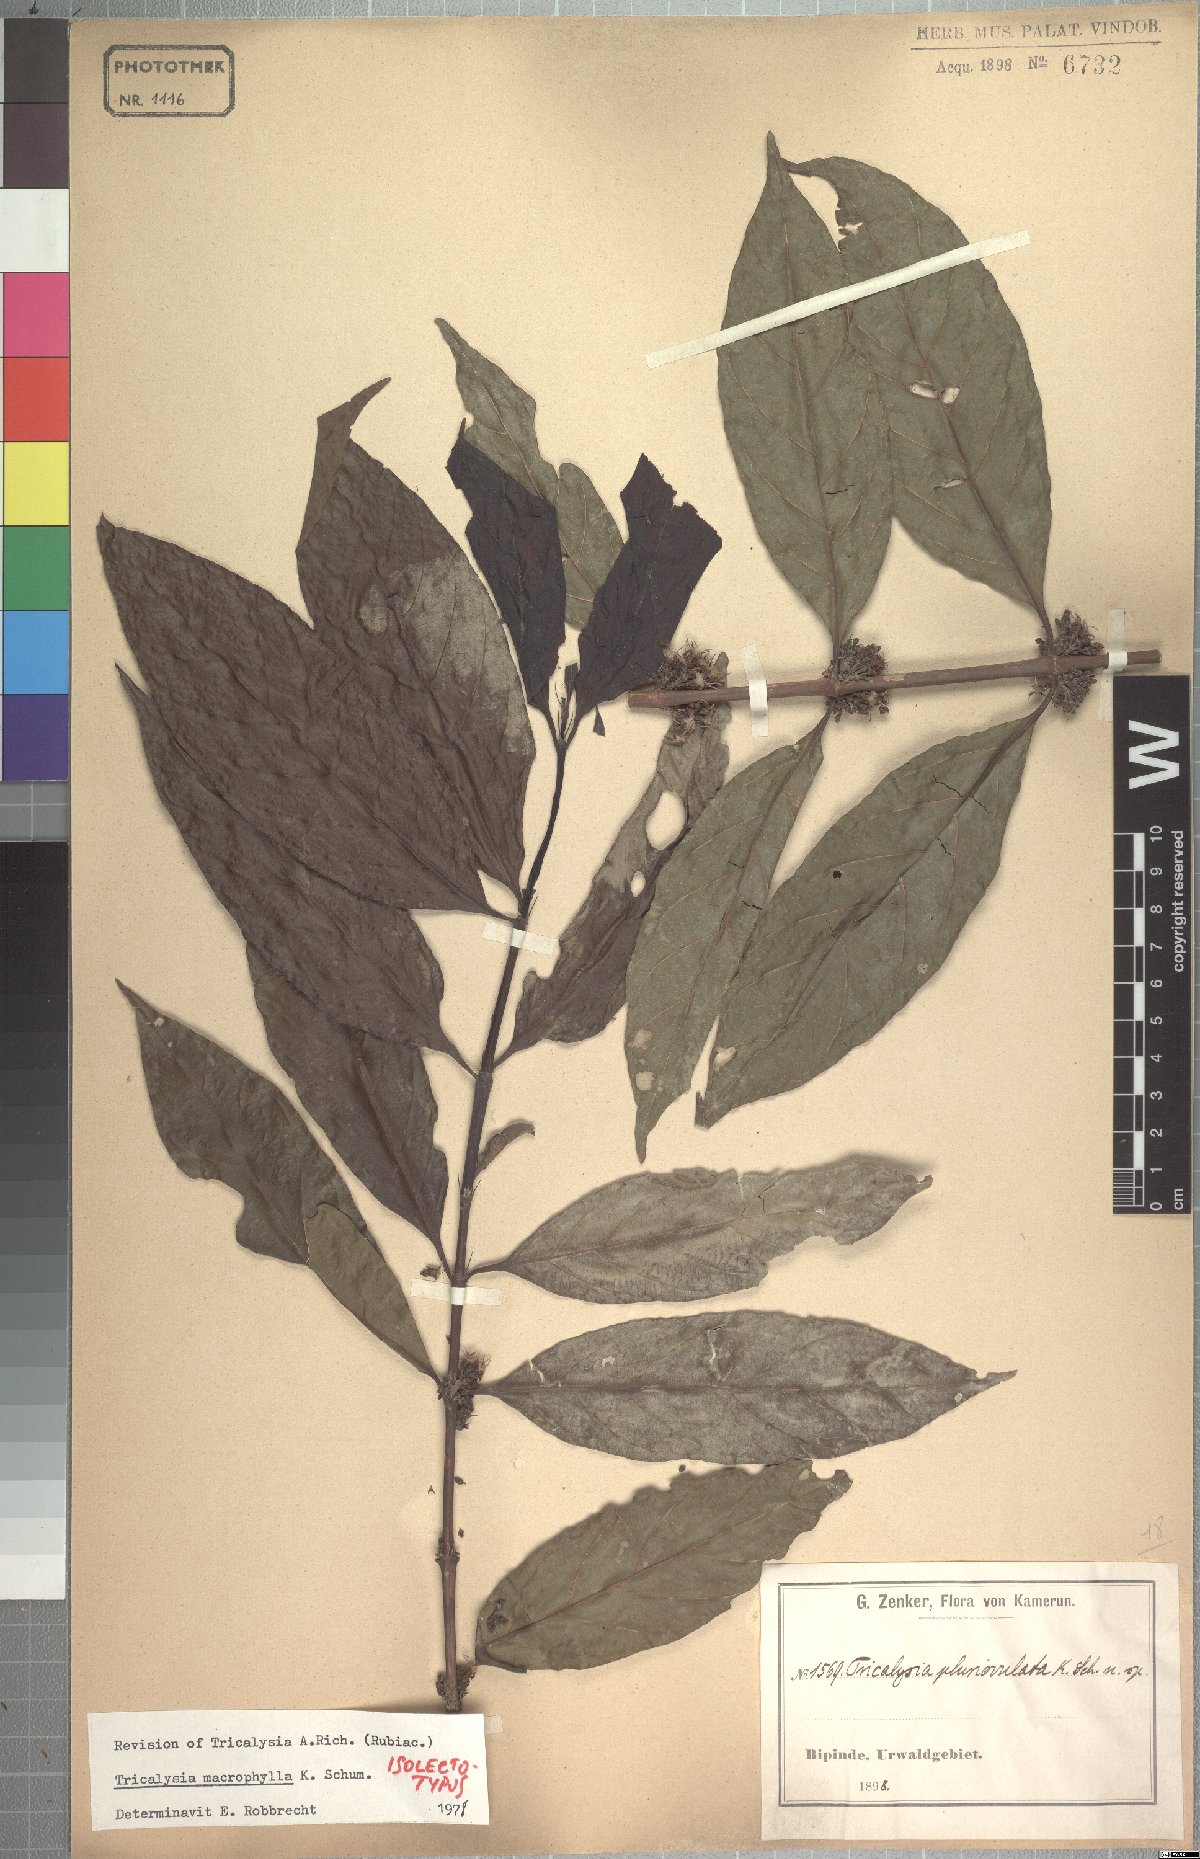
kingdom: Plantae
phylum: Tracheophyta
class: Magnoliopsida
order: Gentianales
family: Rubiaceae
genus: Empogona
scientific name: Empogona macrophylla
